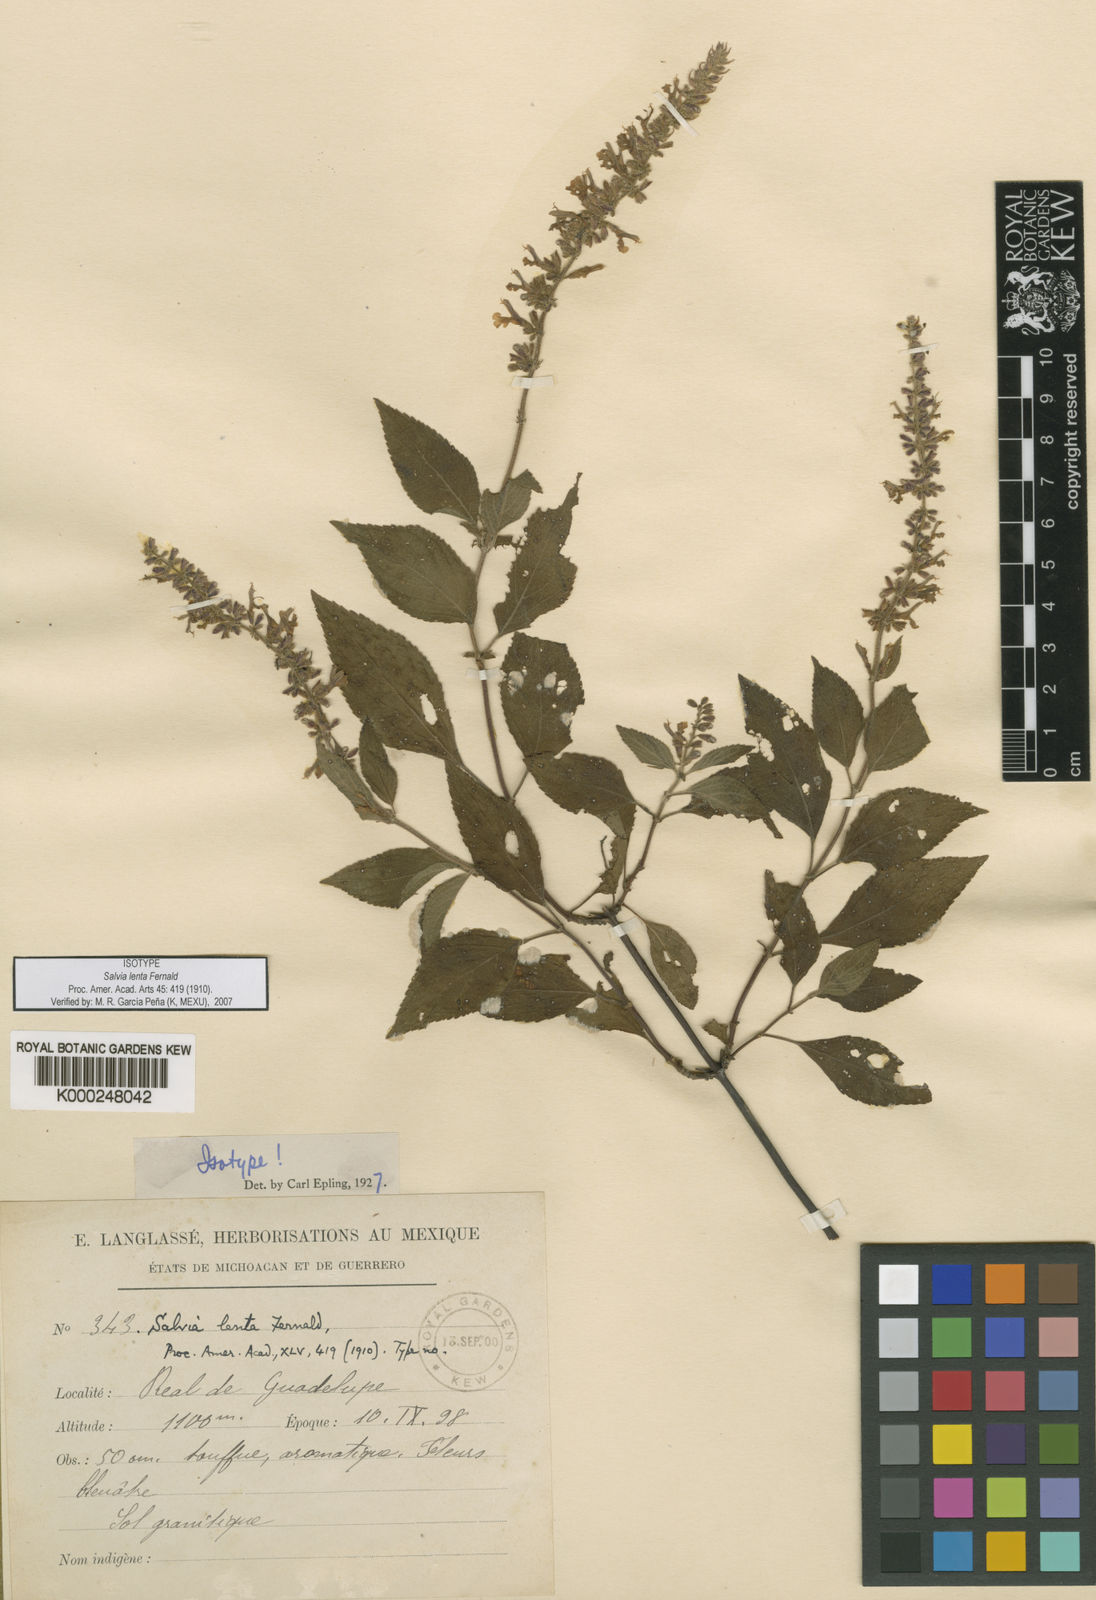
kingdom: Plantae
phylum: Tracheophyta
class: Magnoliopsida
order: Lamiales
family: Lamiaceae
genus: Salvia
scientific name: Salvia polystachia
